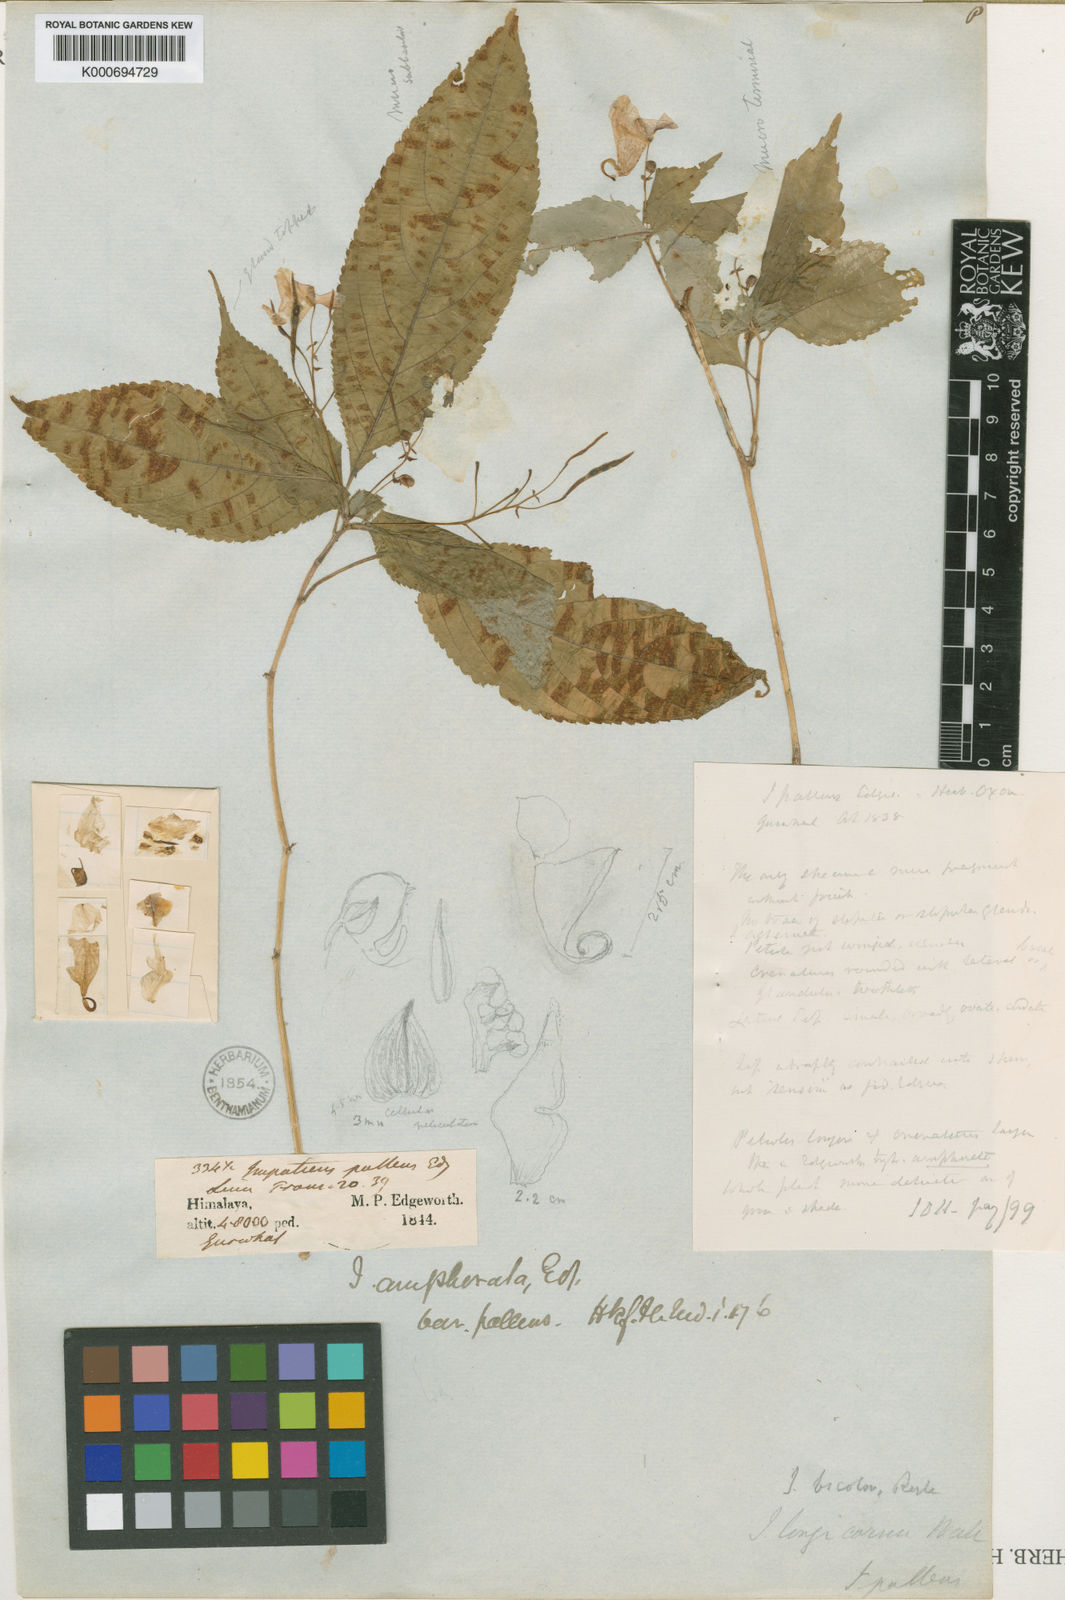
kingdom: Plantae
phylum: Tracheophyta
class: Magnoliopsida
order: Ericales
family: Balsaminaceae
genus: Impatiens
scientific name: Impatiens bicolor
